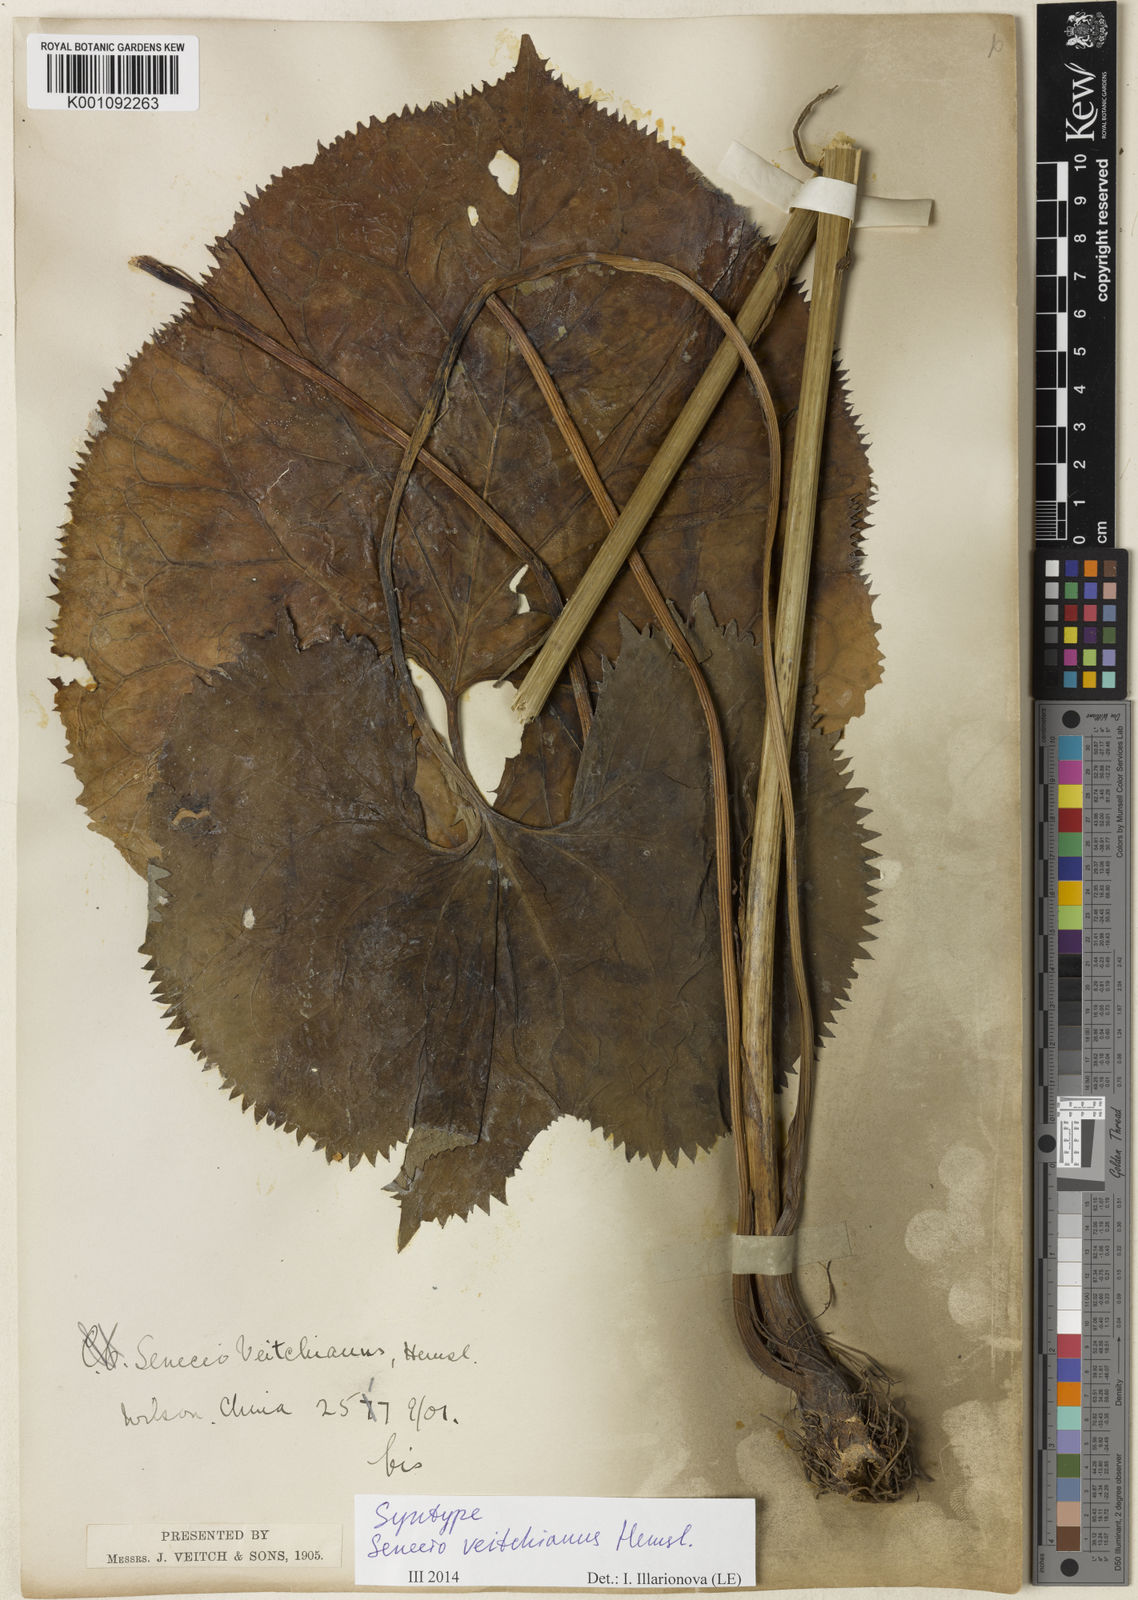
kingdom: Plantae
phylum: Tracheophyta
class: Magnoliopsida
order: Asterales
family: Asteraceae
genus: Ligularia
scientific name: Ligularia veitchiana
